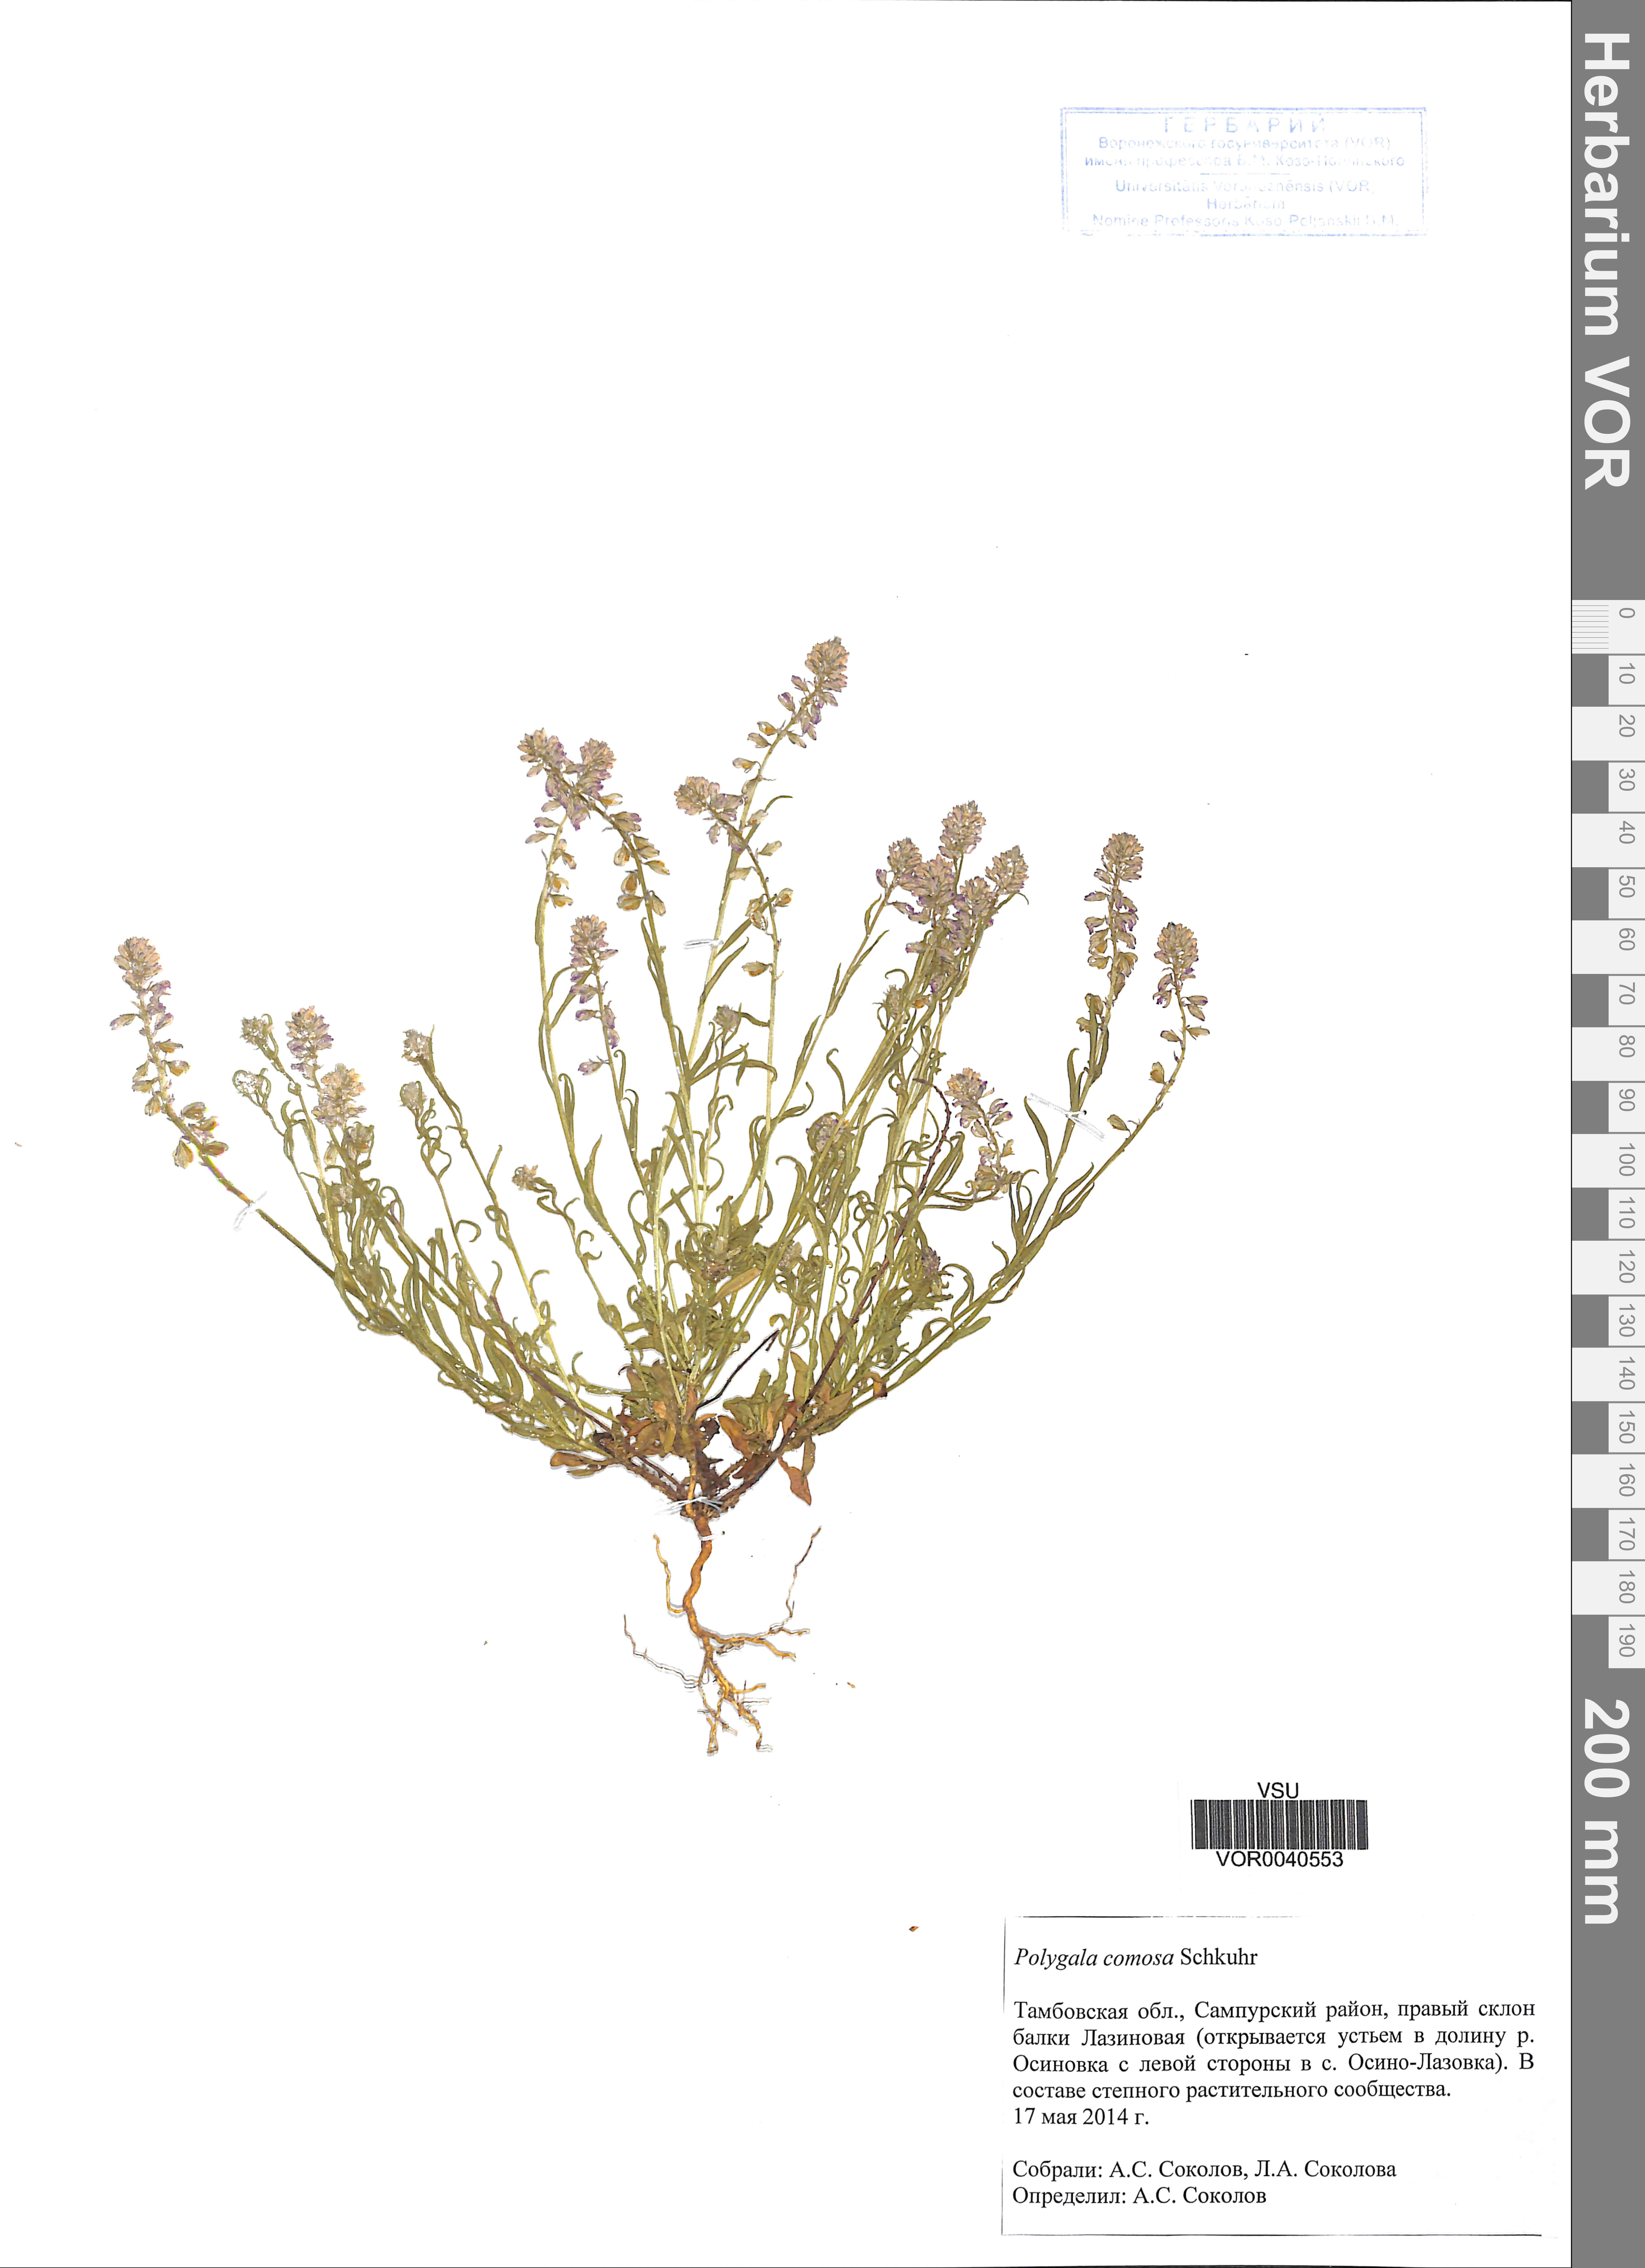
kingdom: Plantae
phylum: Tracheophyta
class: Magnoliopsida
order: Fabales
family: Polygalaceae
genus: Polygala
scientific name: Polygala comosa
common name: Tufted milkwort
